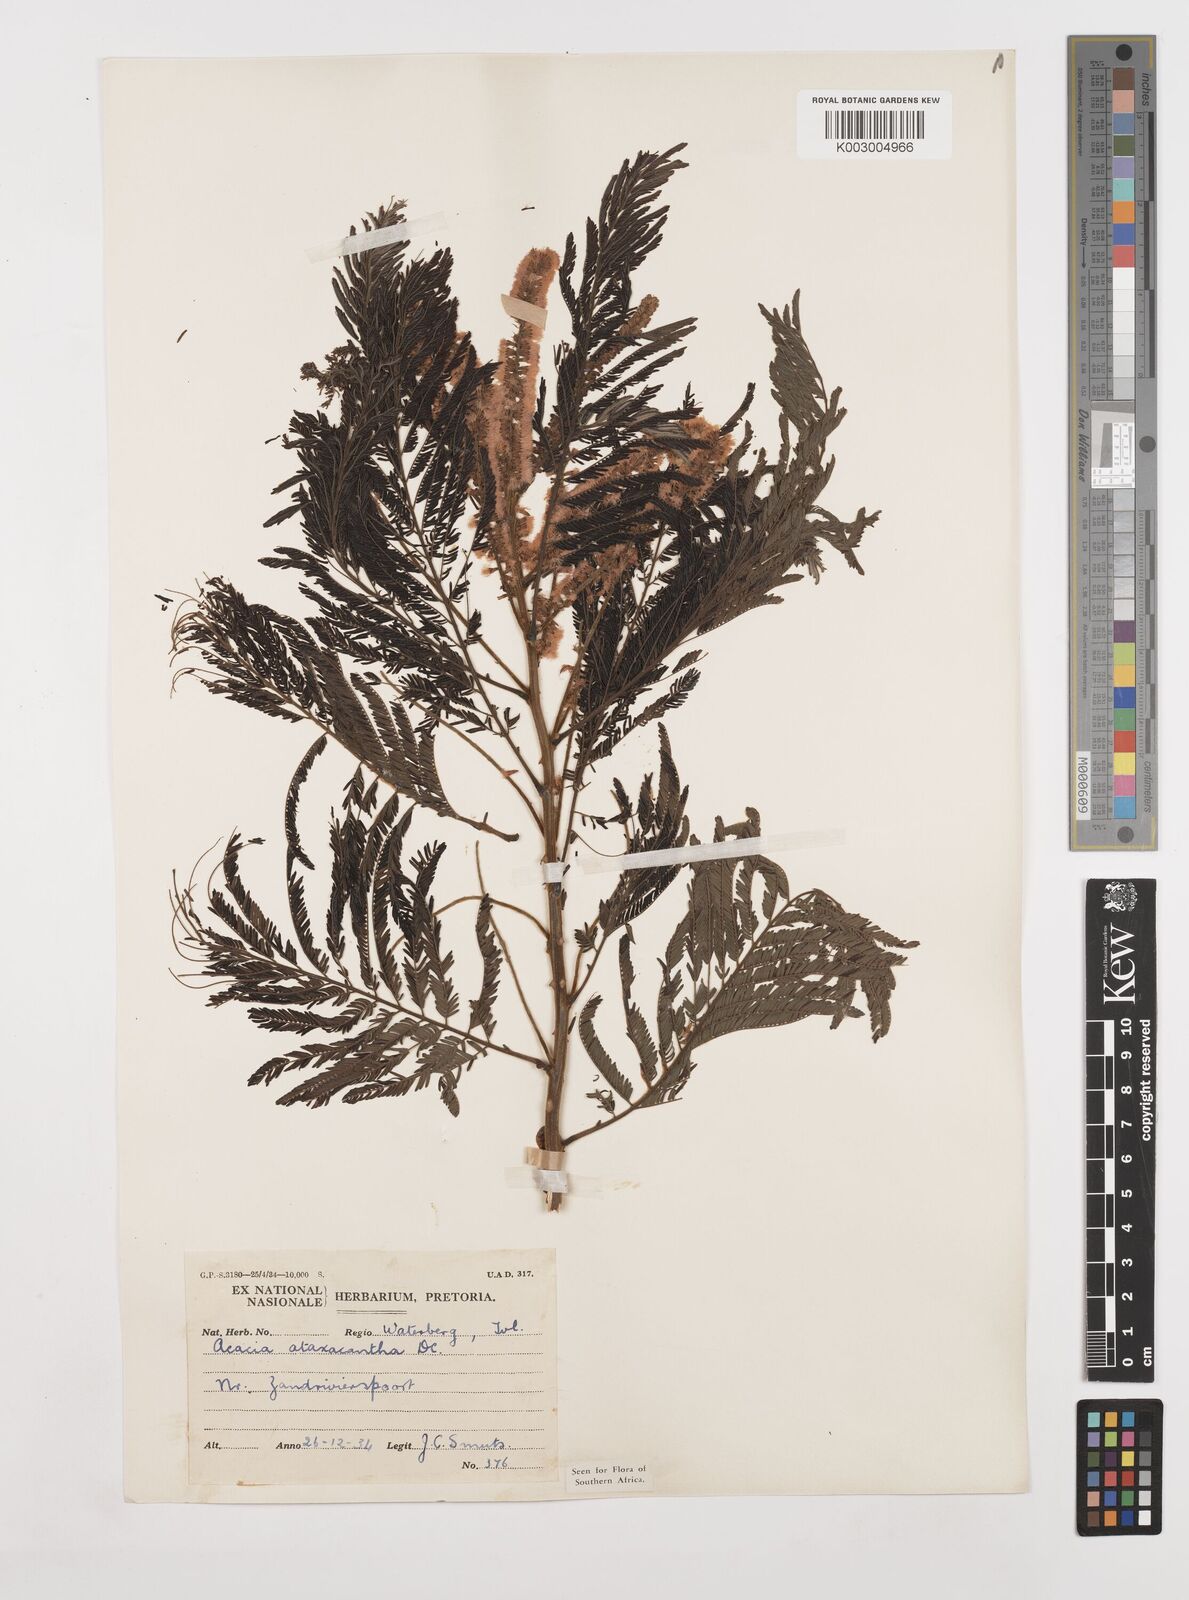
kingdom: Plantae
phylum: Tracheophyta
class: Magnoliopsida
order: Fabales
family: Fabaceae
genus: Senegalia
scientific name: Senegalia ataxacantha
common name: Flame acacia
